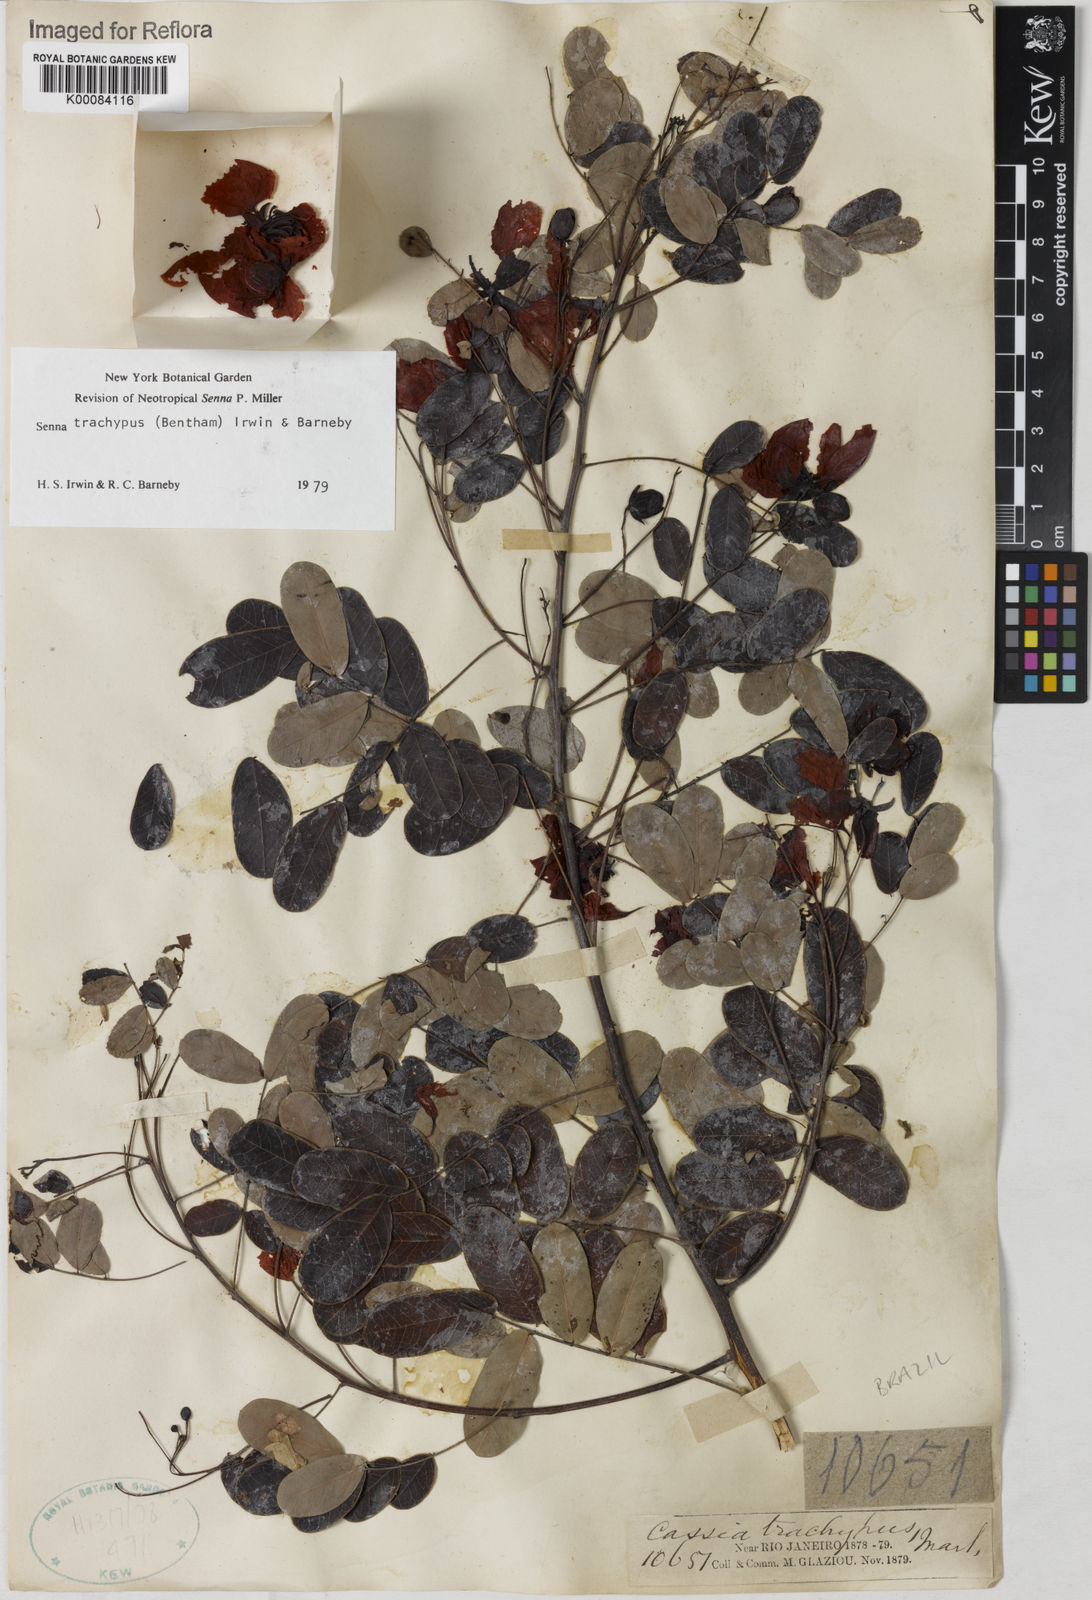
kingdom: Plantae
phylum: Tracheophyta
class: Magnoliopsida
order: Fabales
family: Fabaceae
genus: Senna
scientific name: Senna trachypus
